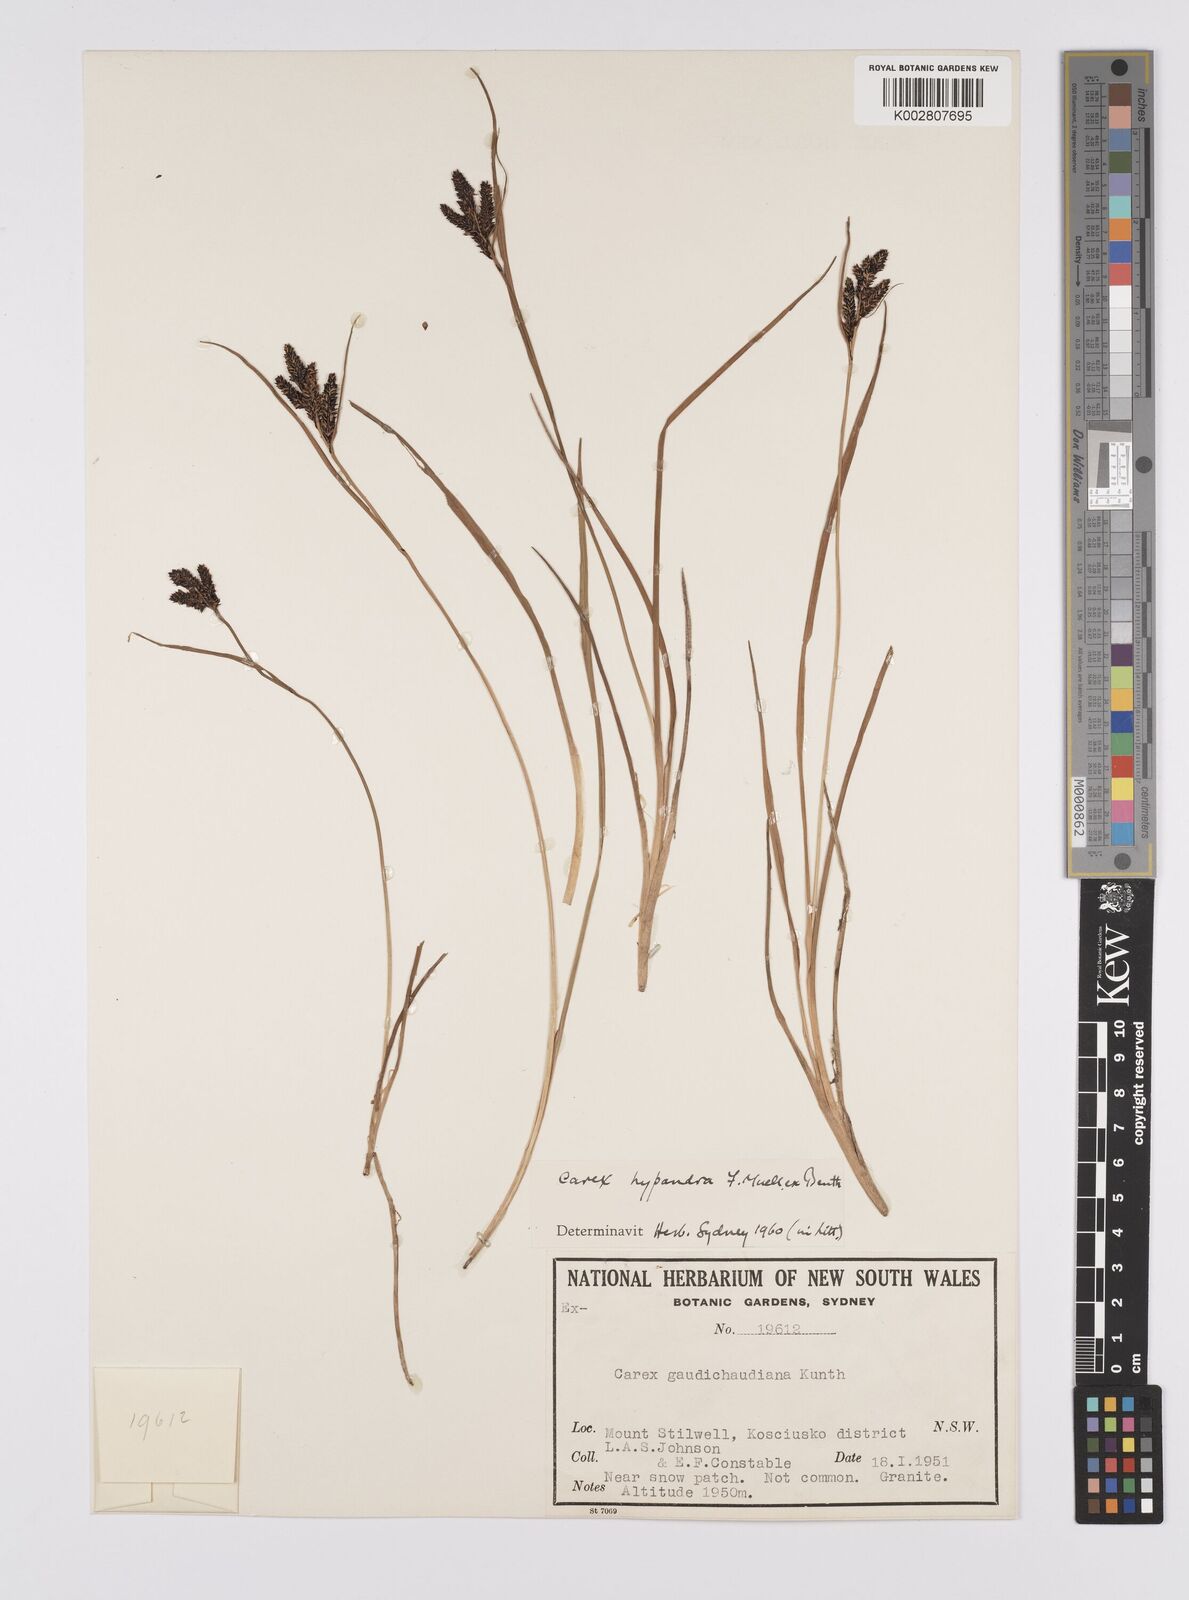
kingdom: Plantae
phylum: Tracheophyta
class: Liliopsida
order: Poales
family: Cyperaceae
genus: Carex
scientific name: Carex hypandra
